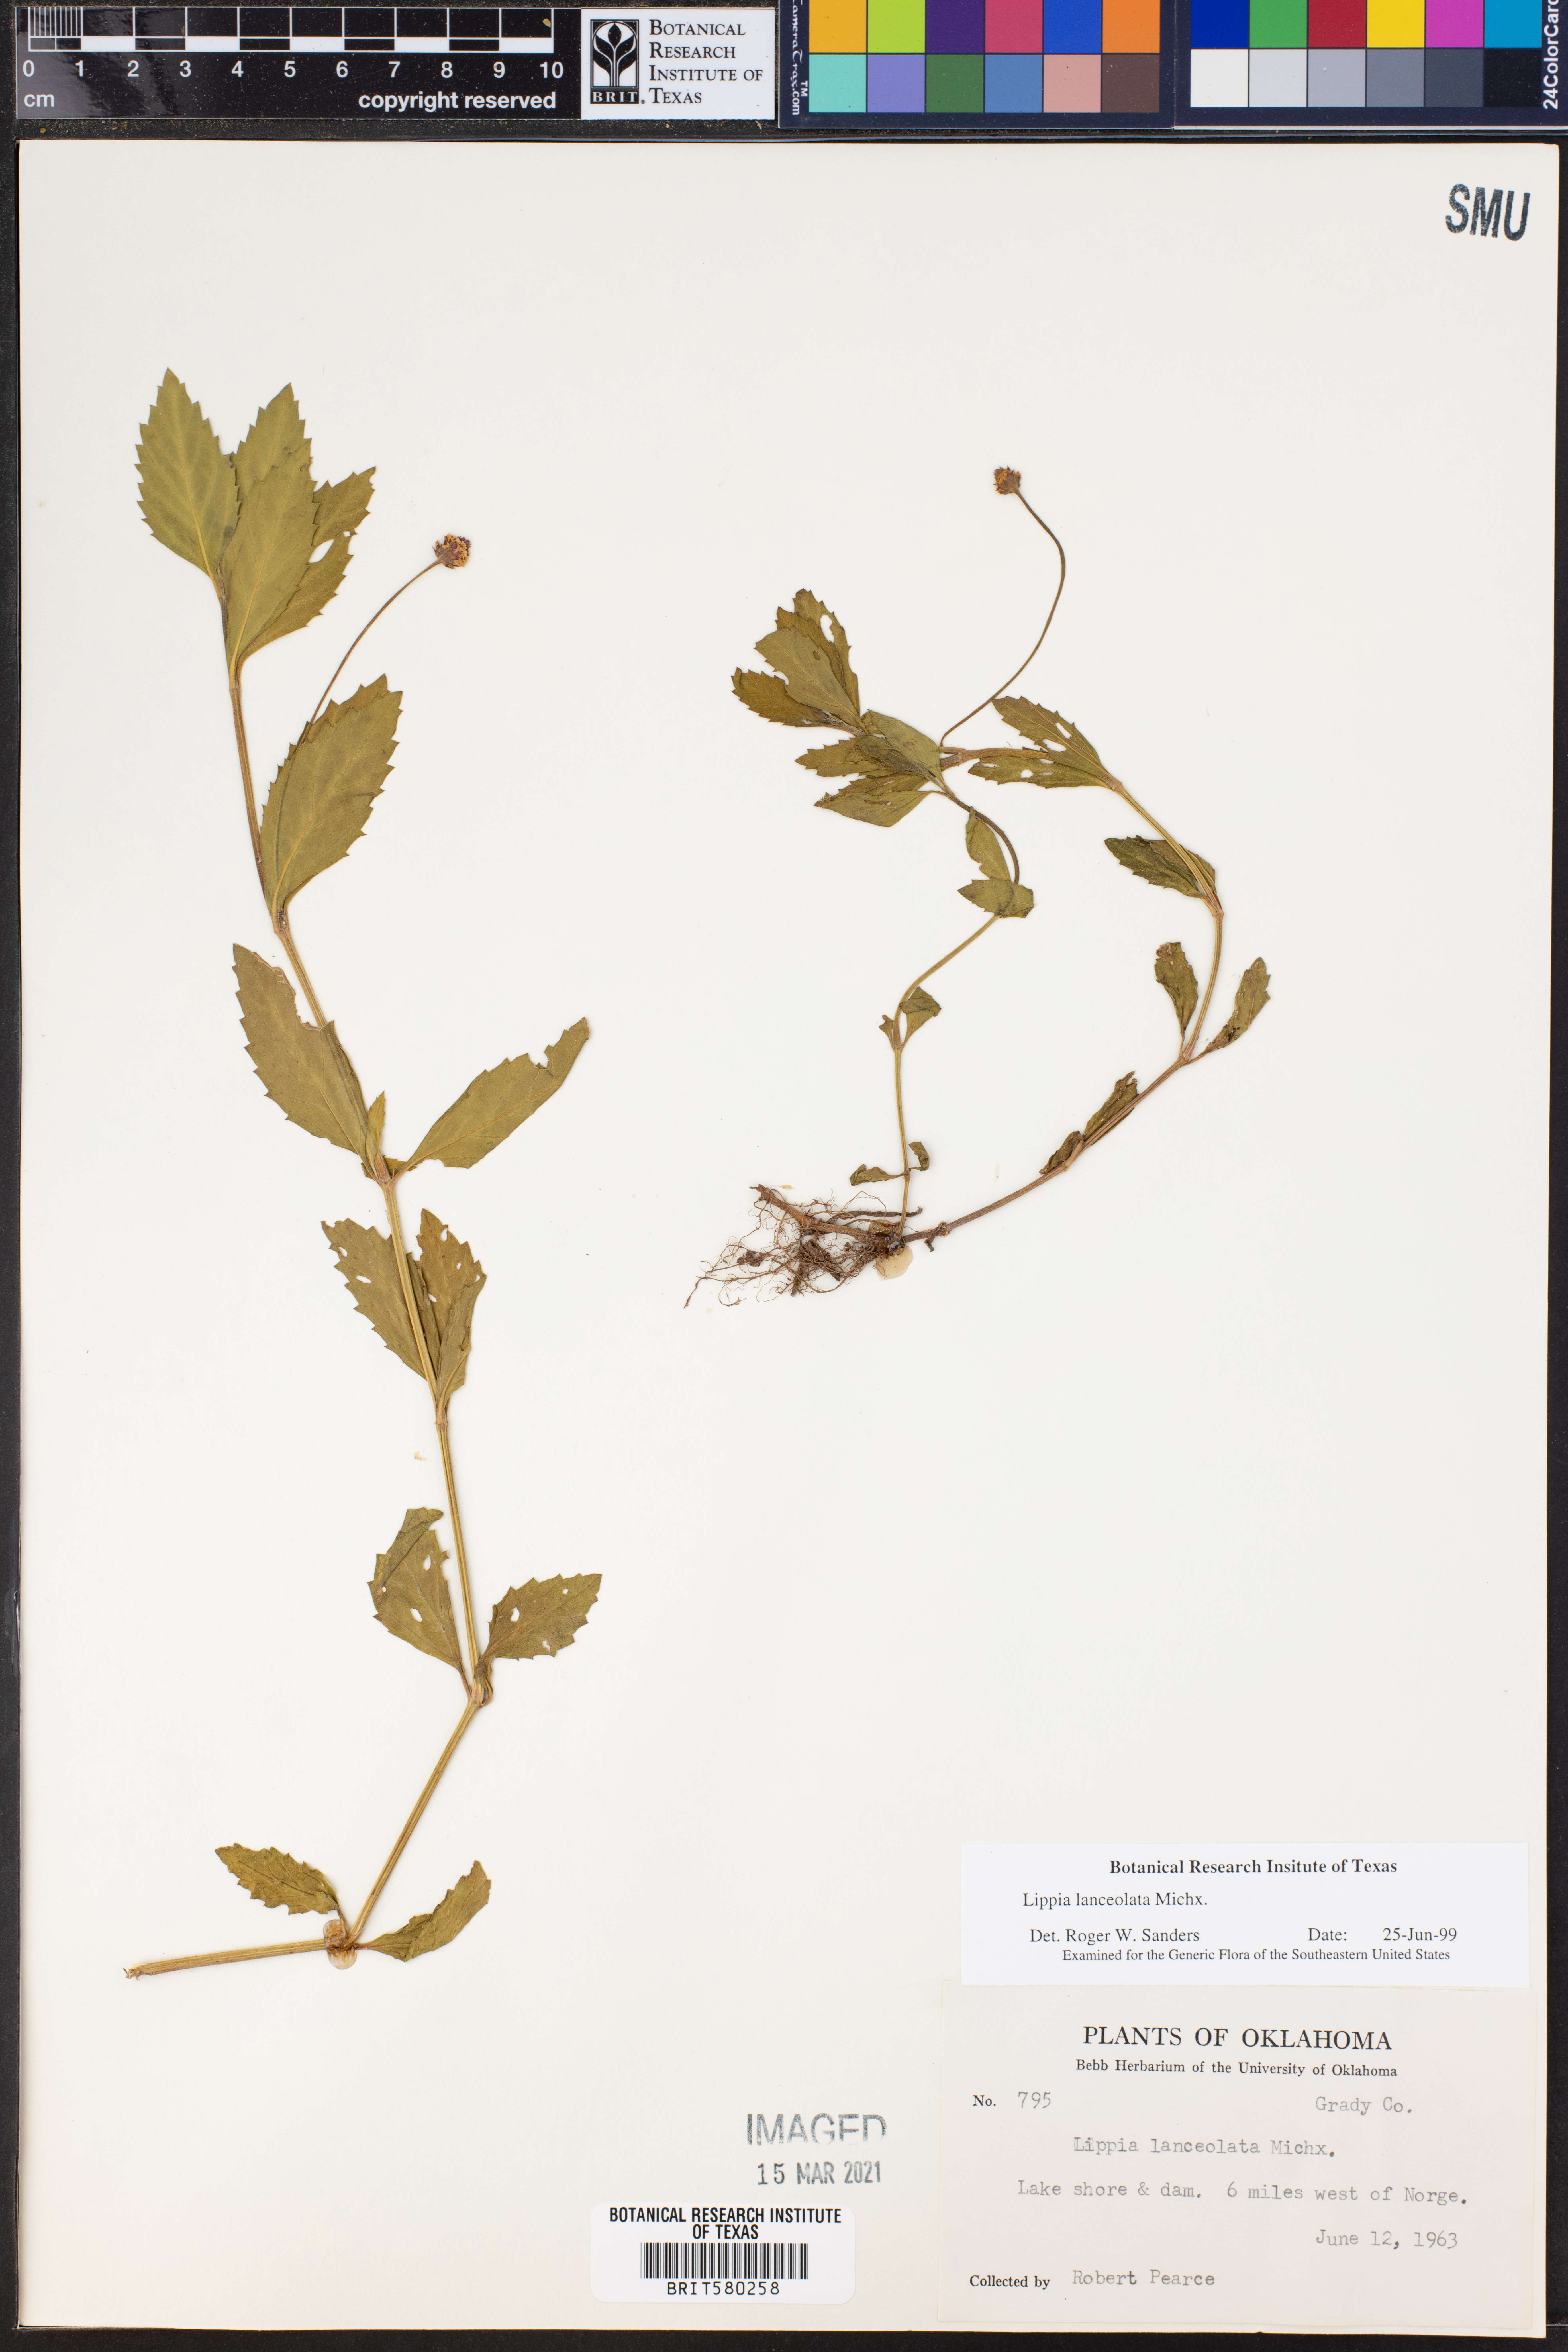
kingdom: Plantae
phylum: Tracheophyta
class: Magnoliopsida
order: Lamiales
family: Verbenaceae
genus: Phyla
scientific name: Phyla lanceolata
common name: Northern fogfruit
